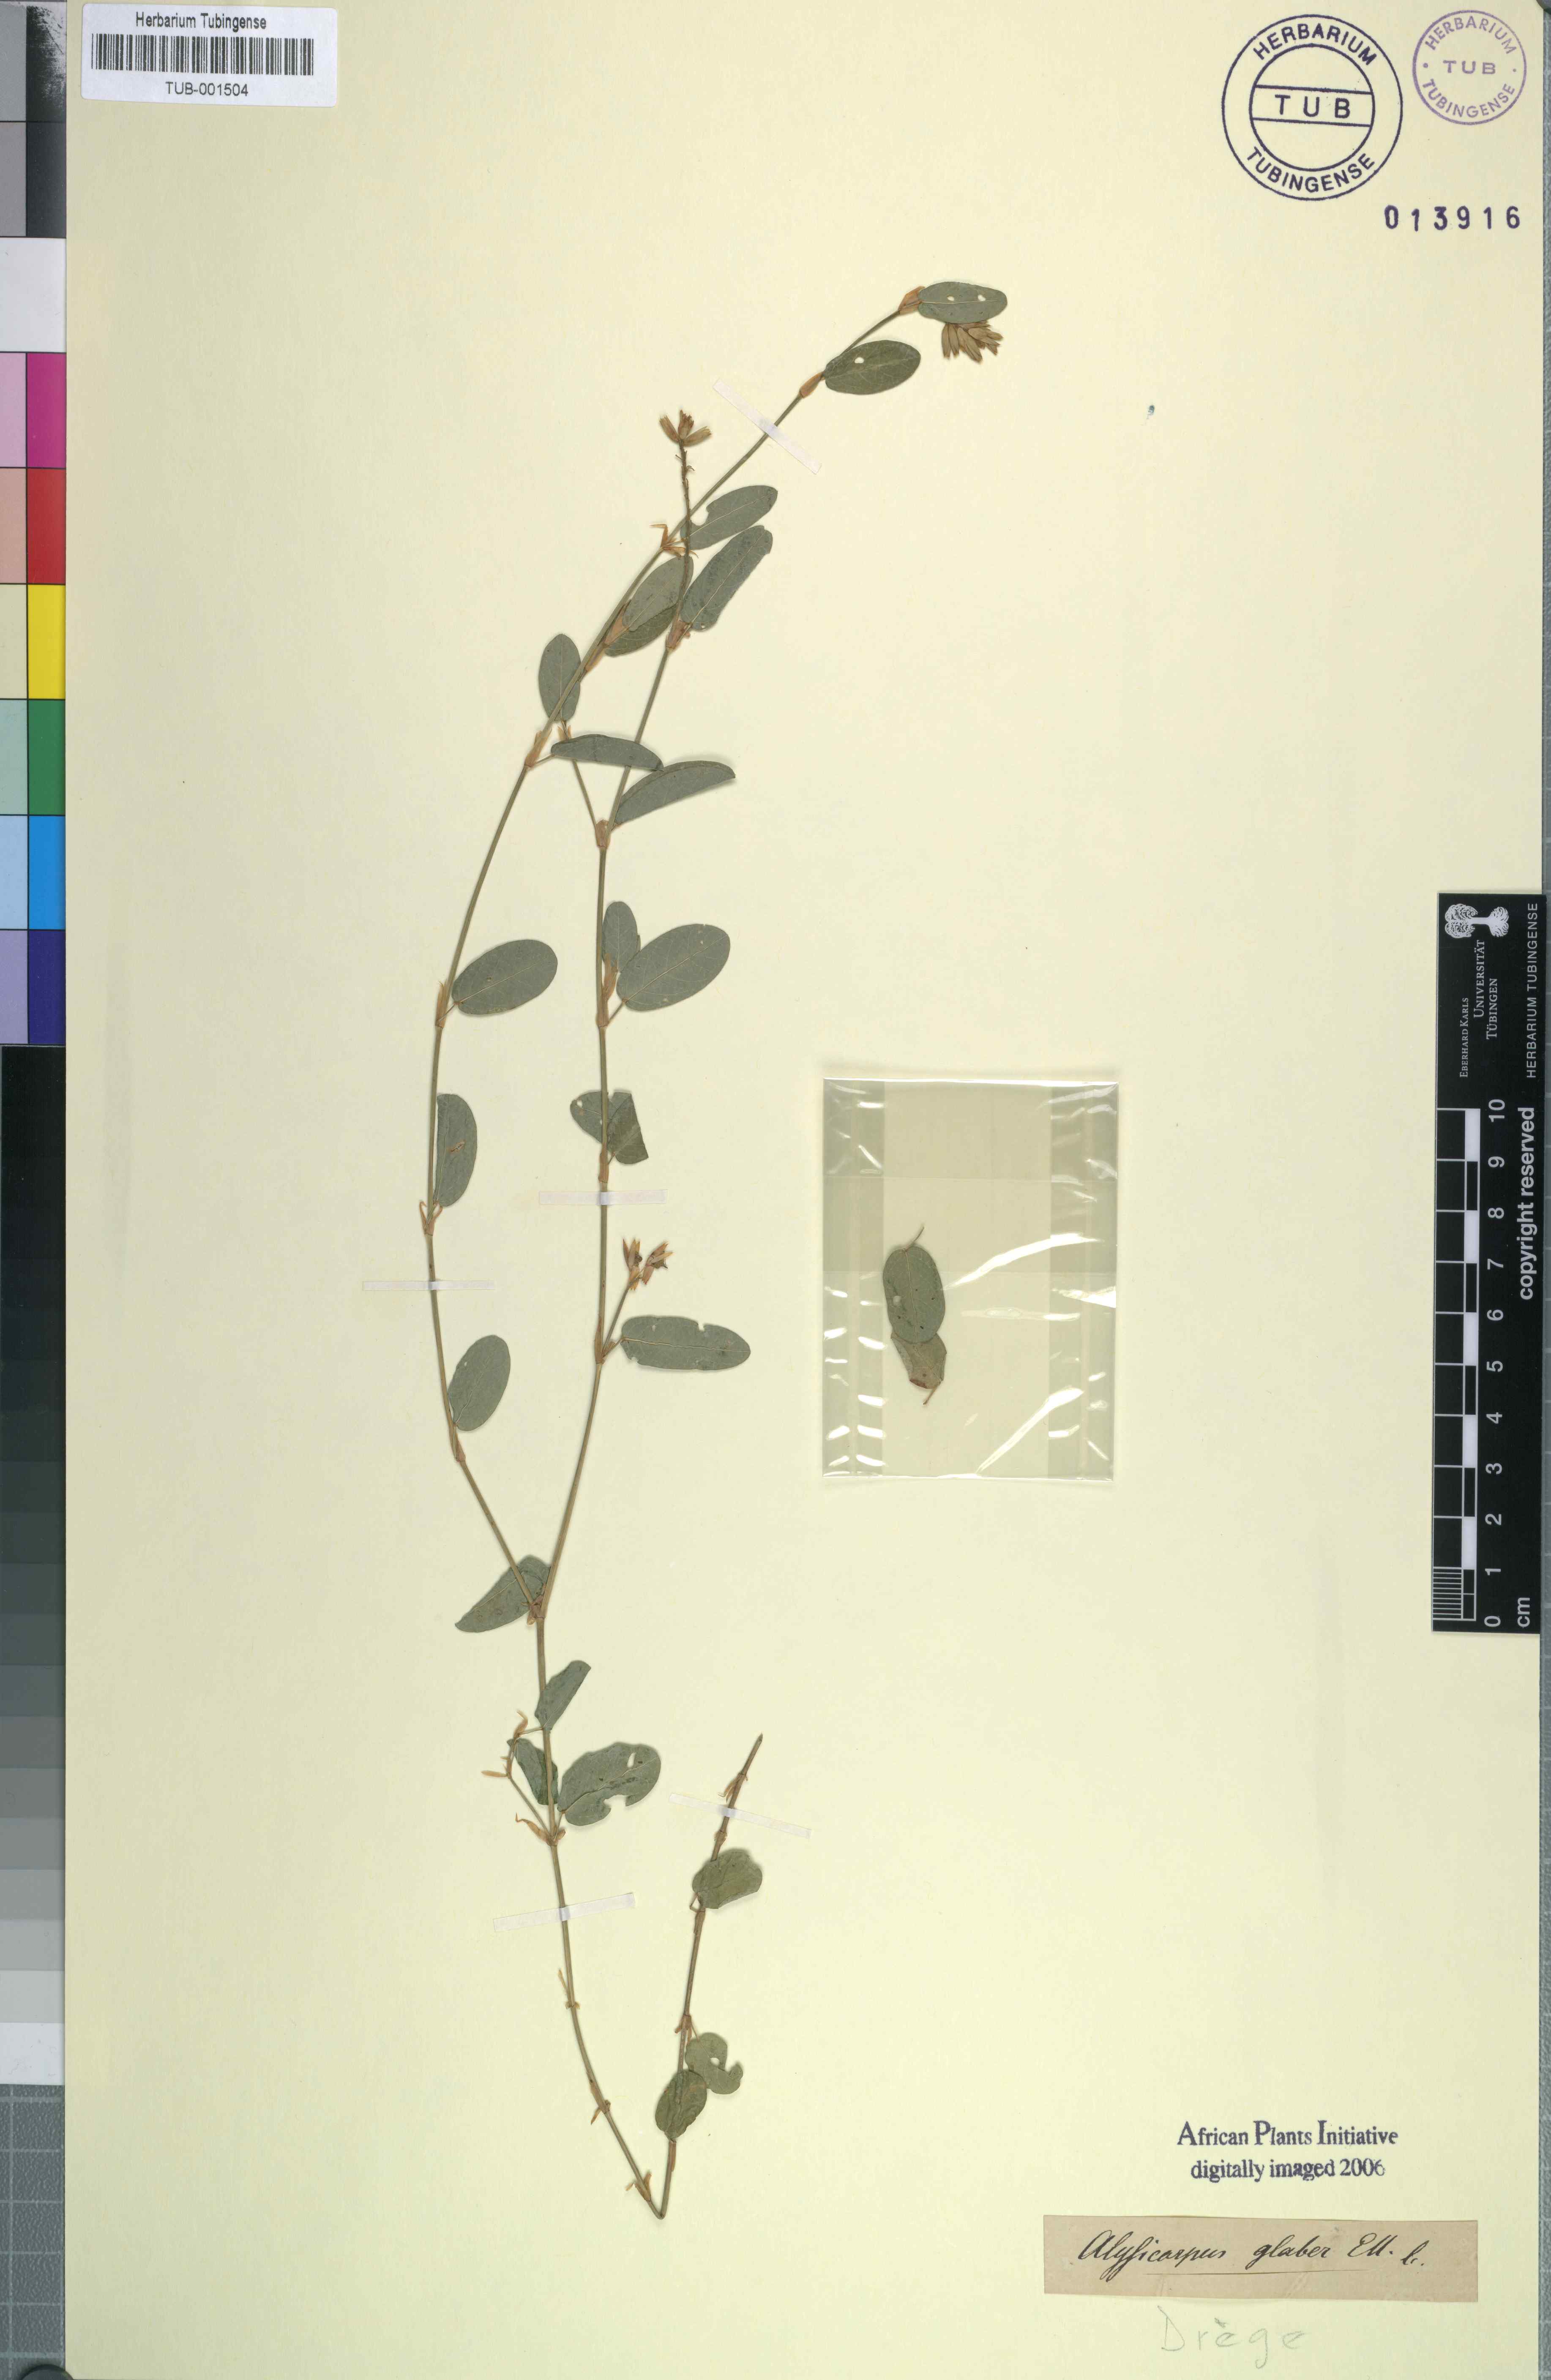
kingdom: Plantae
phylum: Tracheophyta
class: Magnoliopsida
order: Fabales
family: Fabaceae
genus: Alysicarpus
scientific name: Alysicarpus rugosus
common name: Red moneywort
